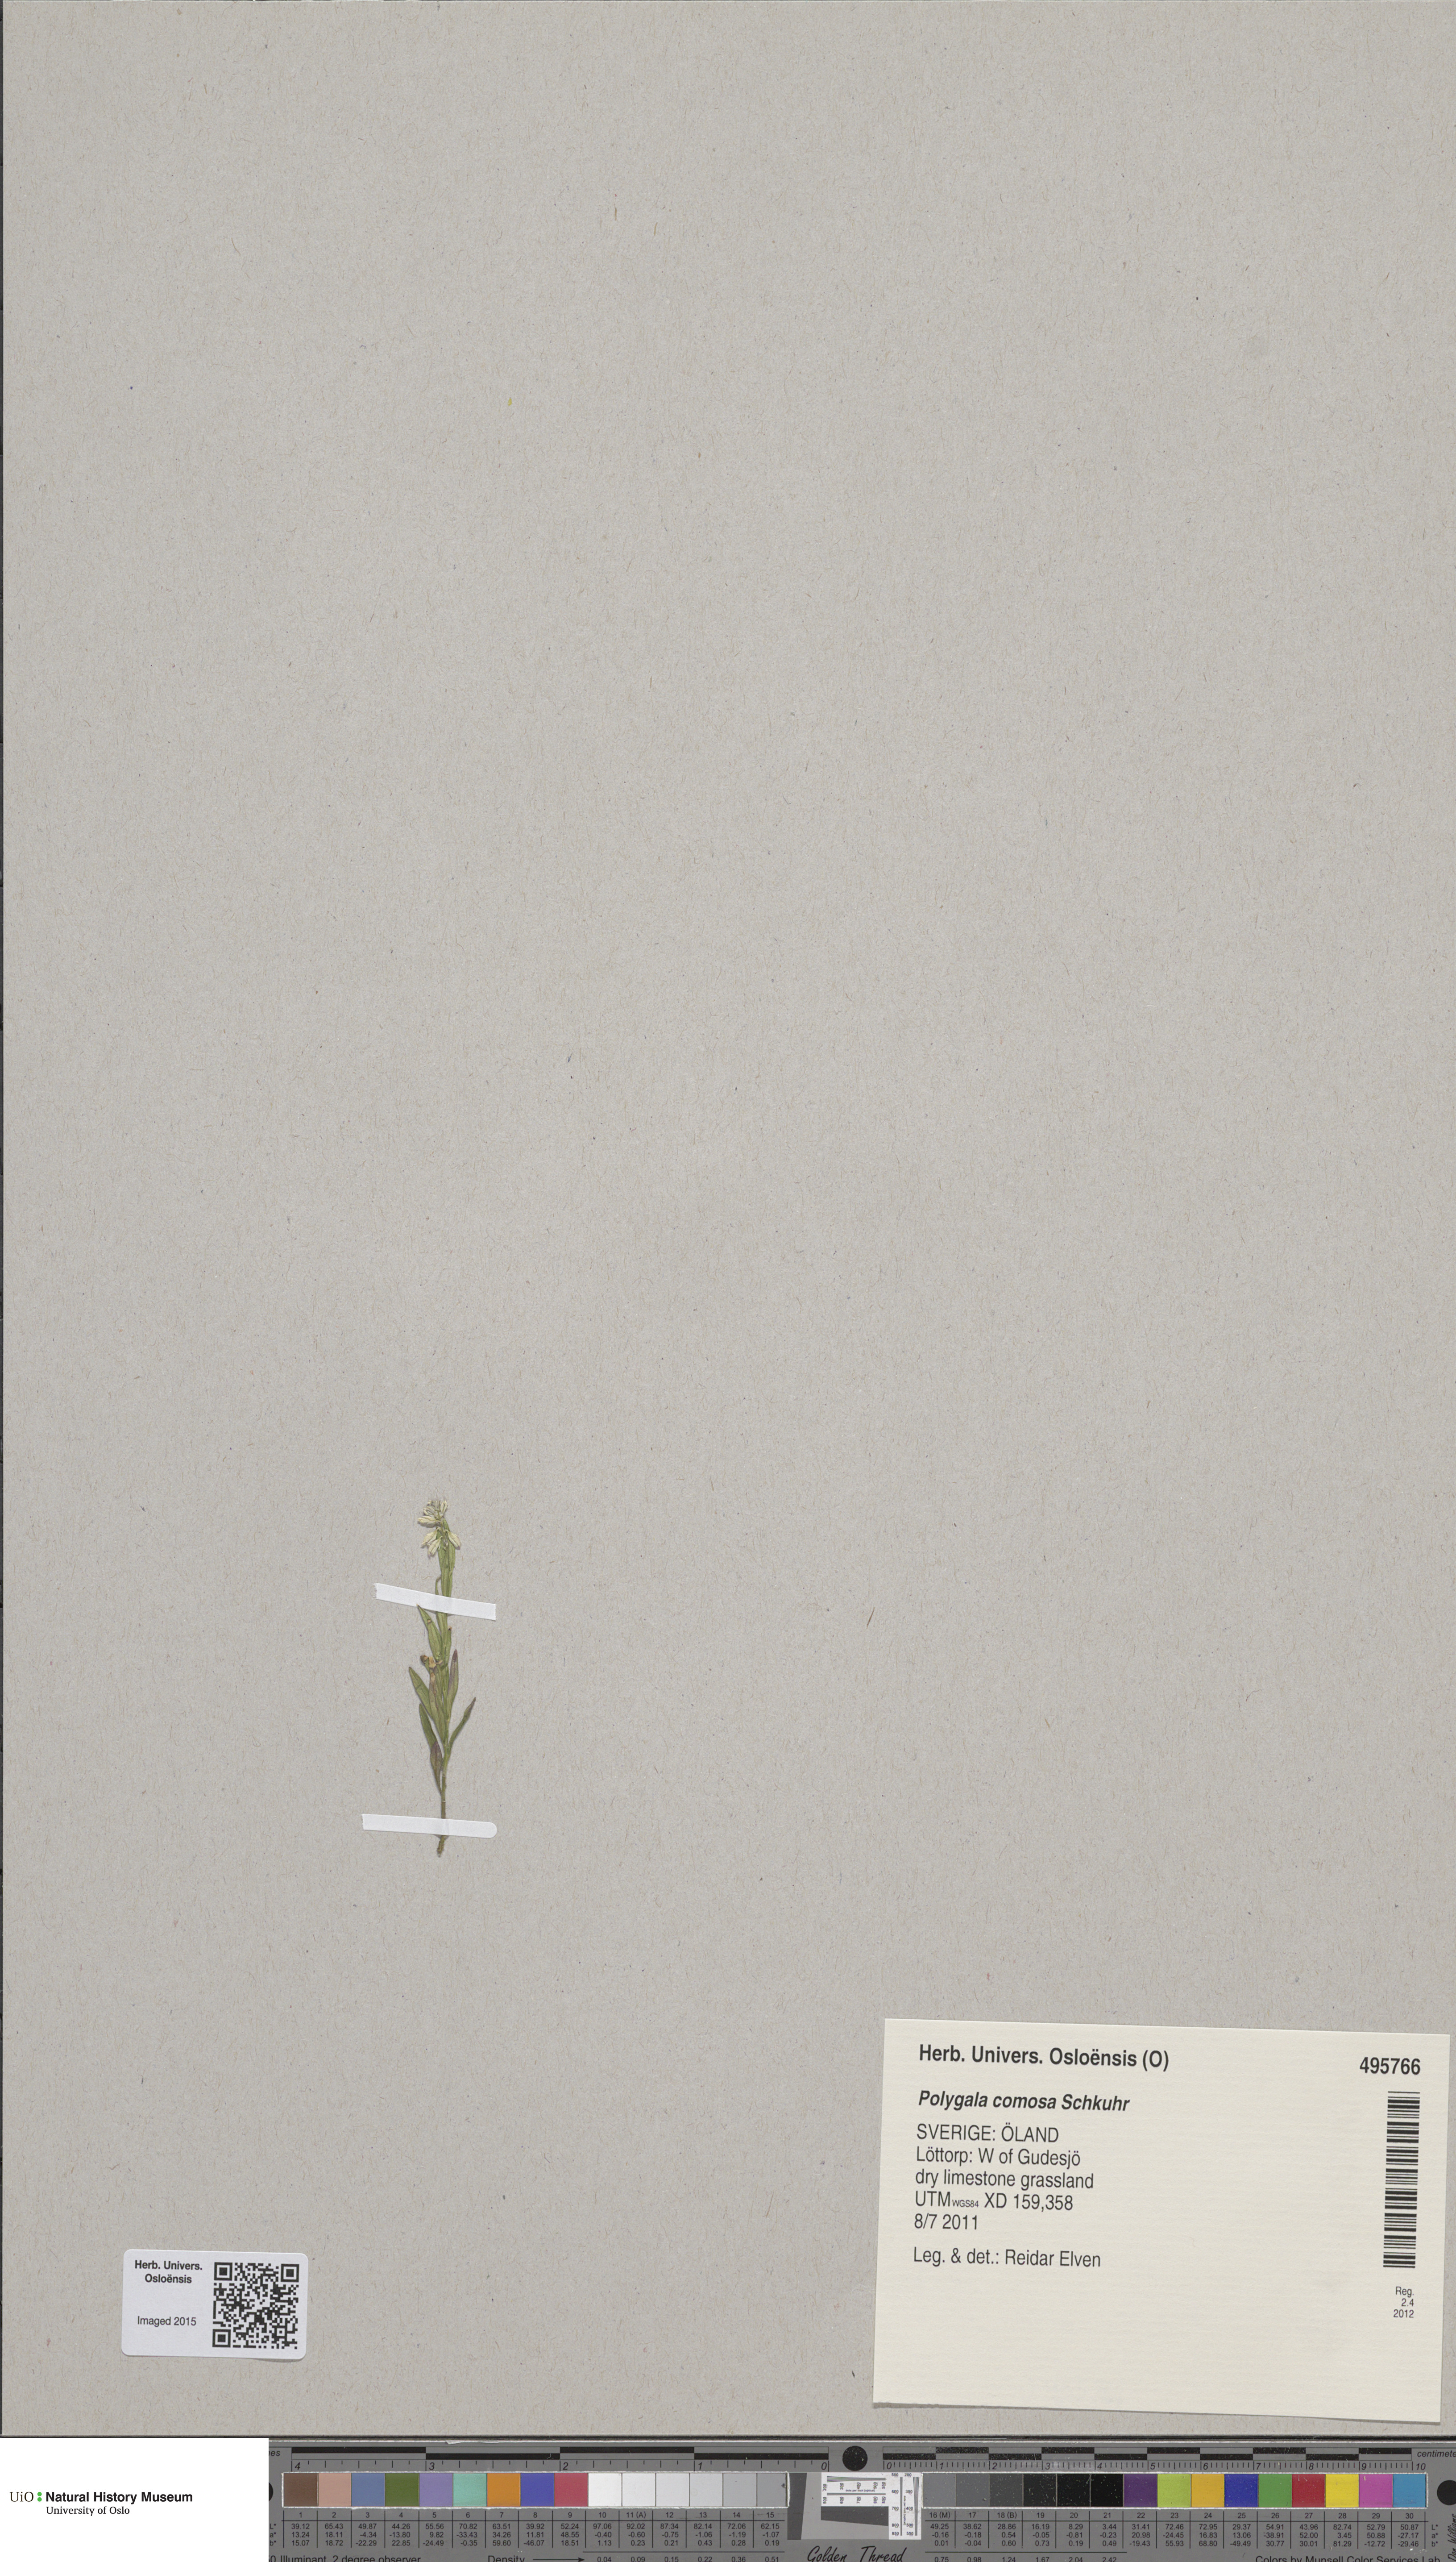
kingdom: Plantae
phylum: Tracheophyta
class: Magnoliopsida
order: Fabales
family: Polygalaceae
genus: Polygala
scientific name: Polygala comosa
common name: Tufted milkwort
